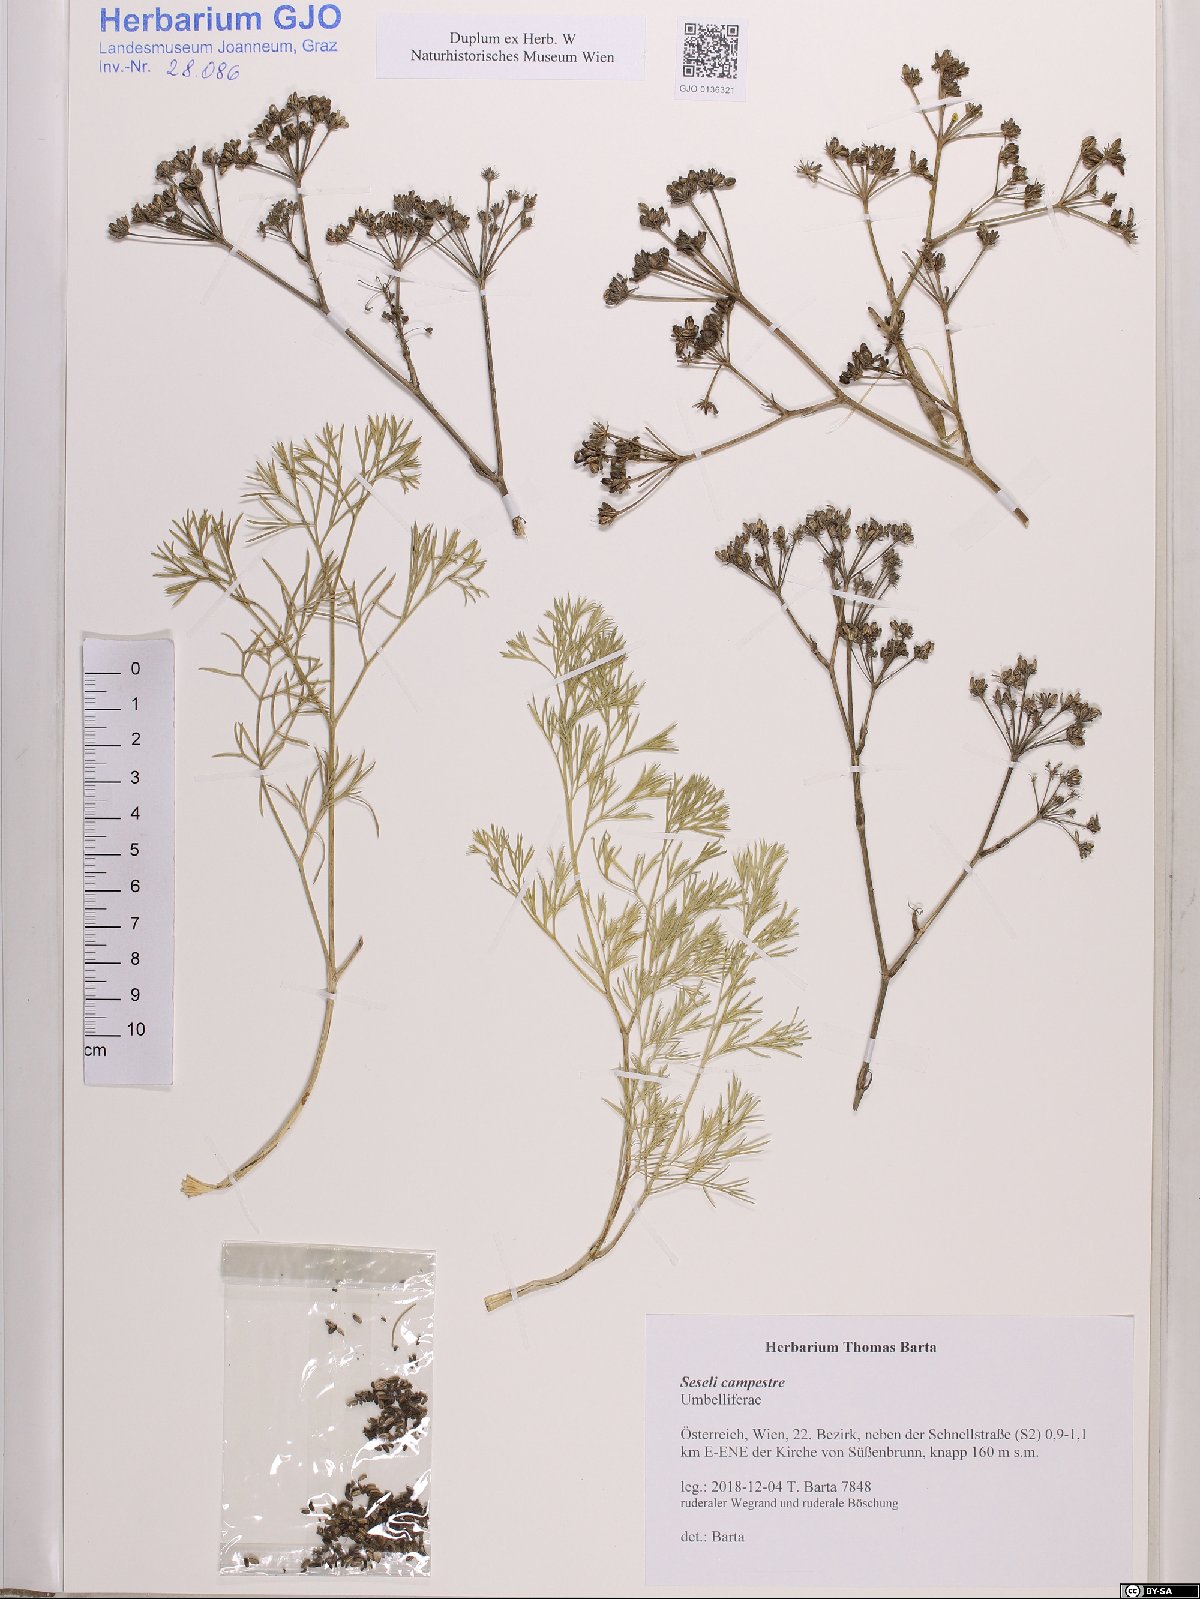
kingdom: Plantae
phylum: Tracheophyta
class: Magnoliopsida
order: Apiales
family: Apiaceae
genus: Seseli
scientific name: Seseli campestre
